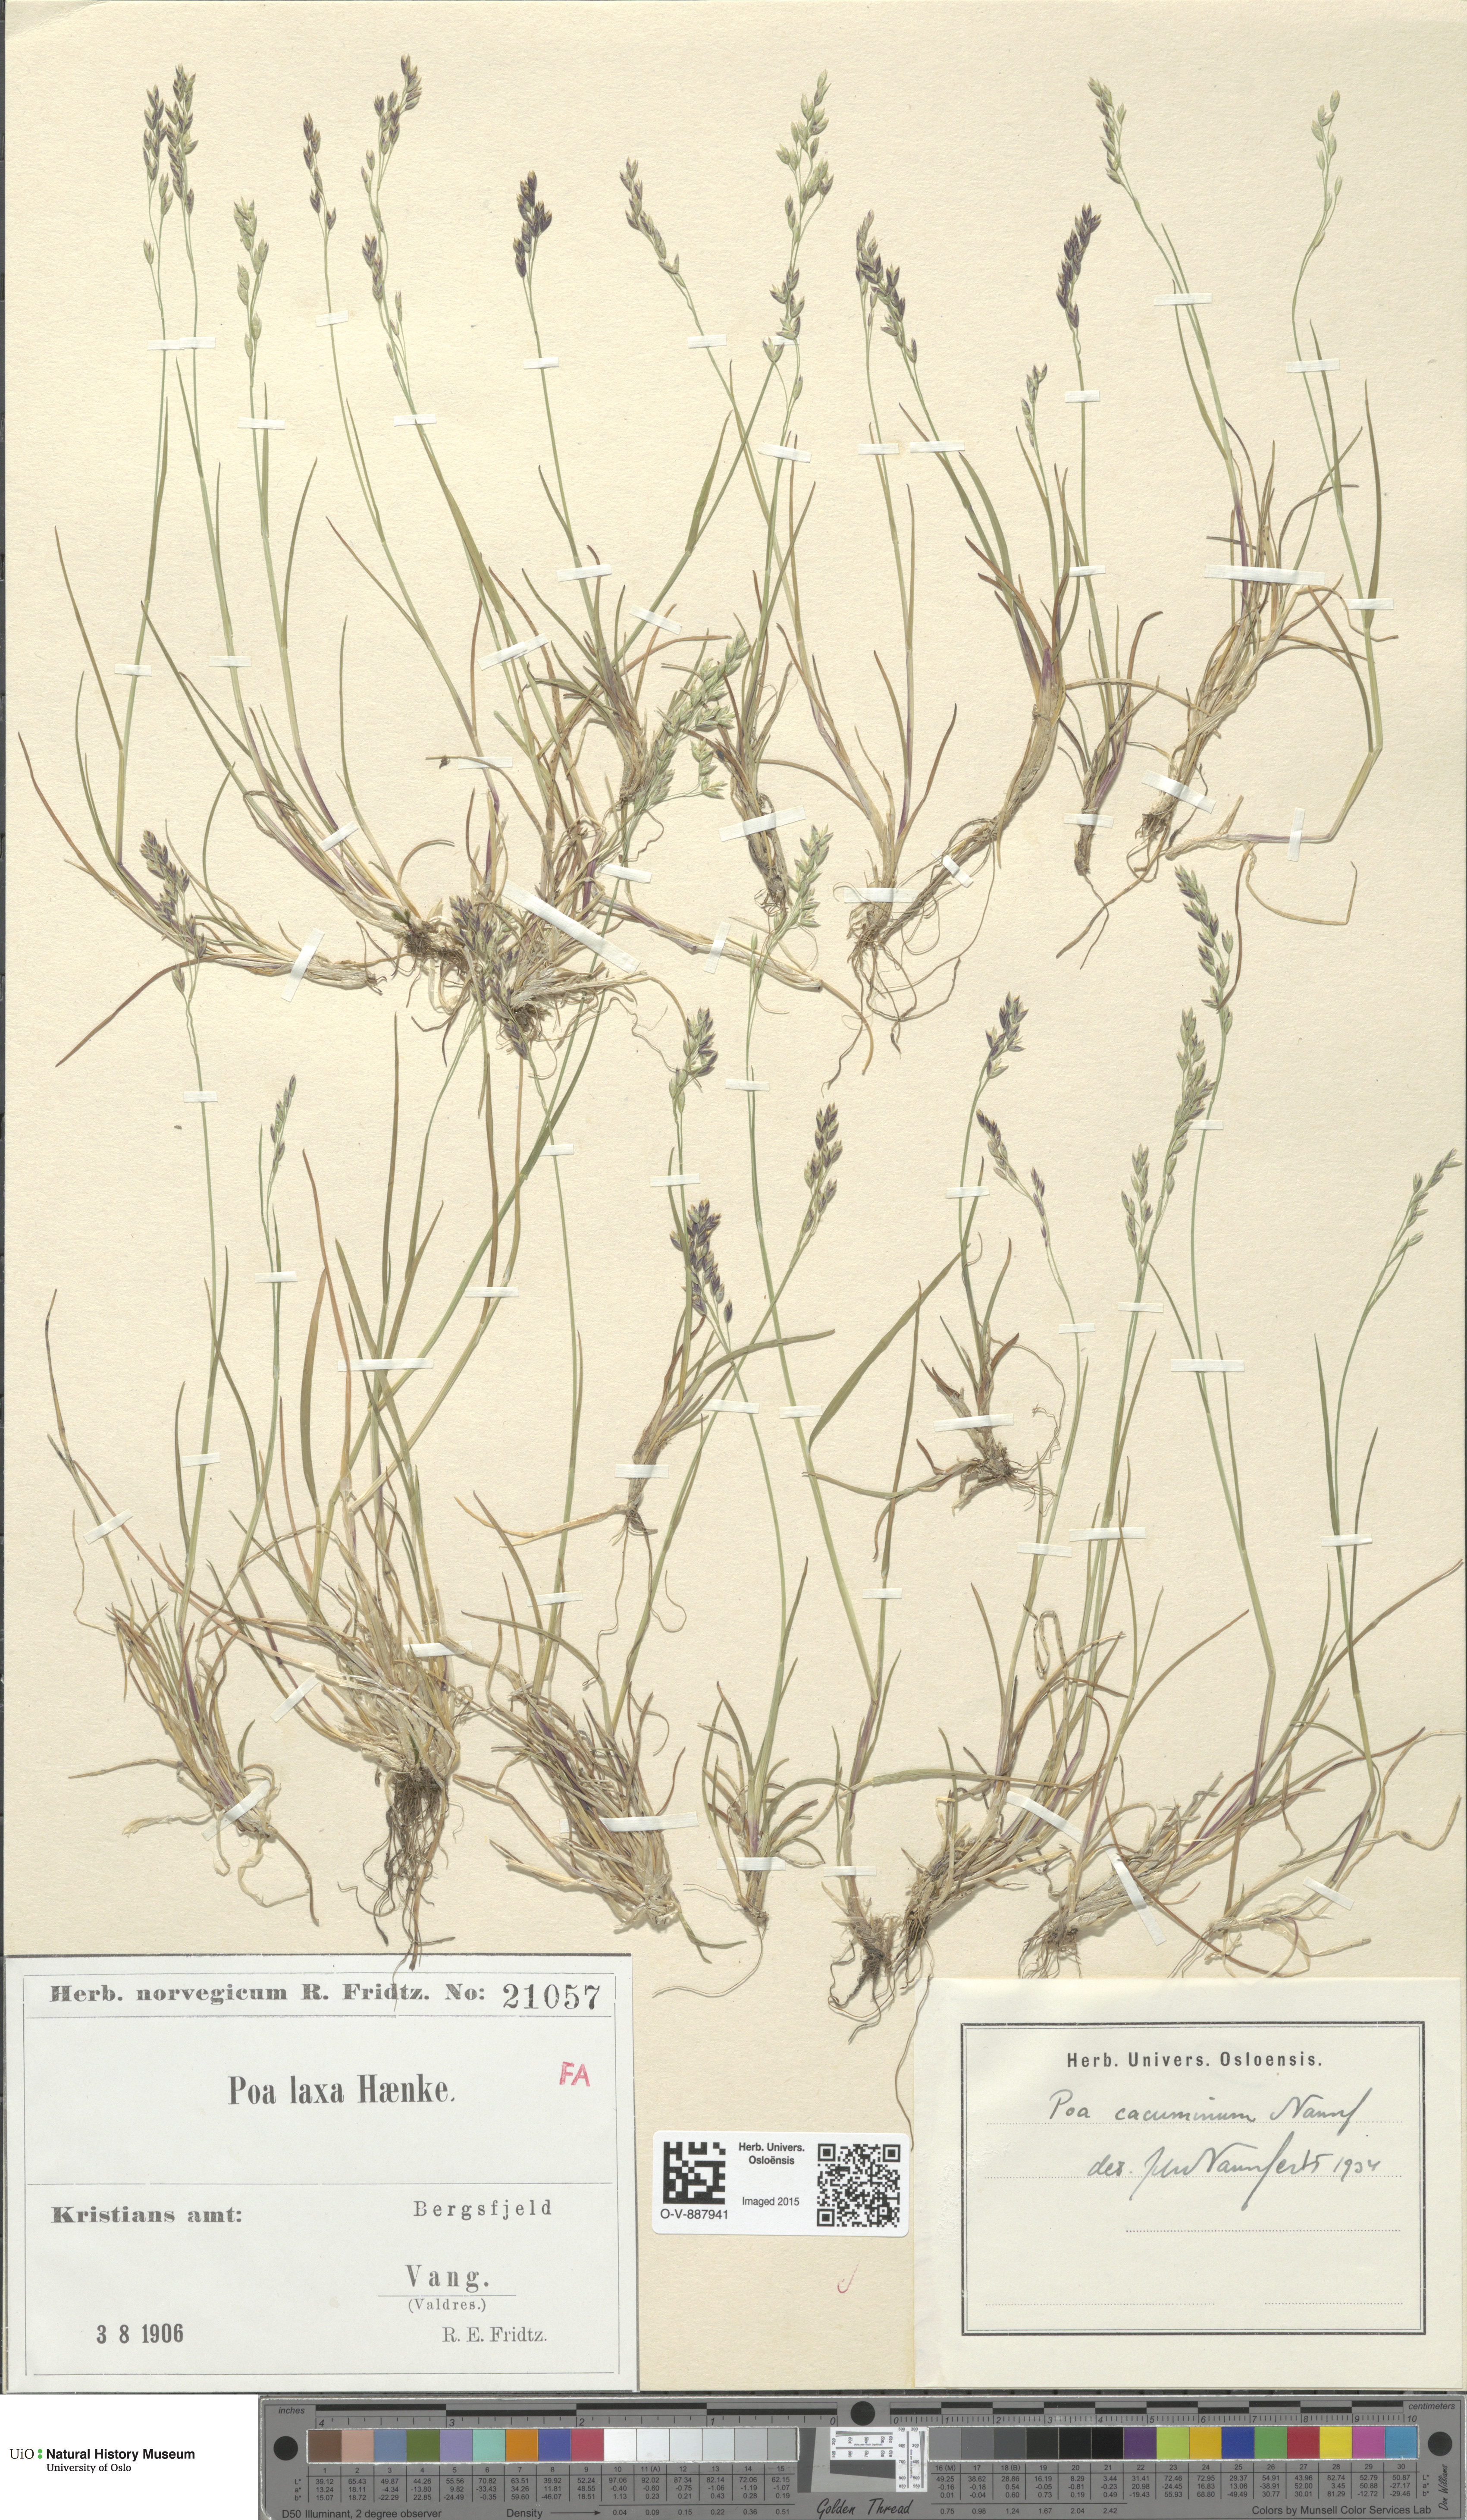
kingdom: Plantae
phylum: Tracheophyta
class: Liliopsida
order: Poales
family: Poaceae
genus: Poa
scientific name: Poa flexuosa
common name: Wavy meadow-grass
